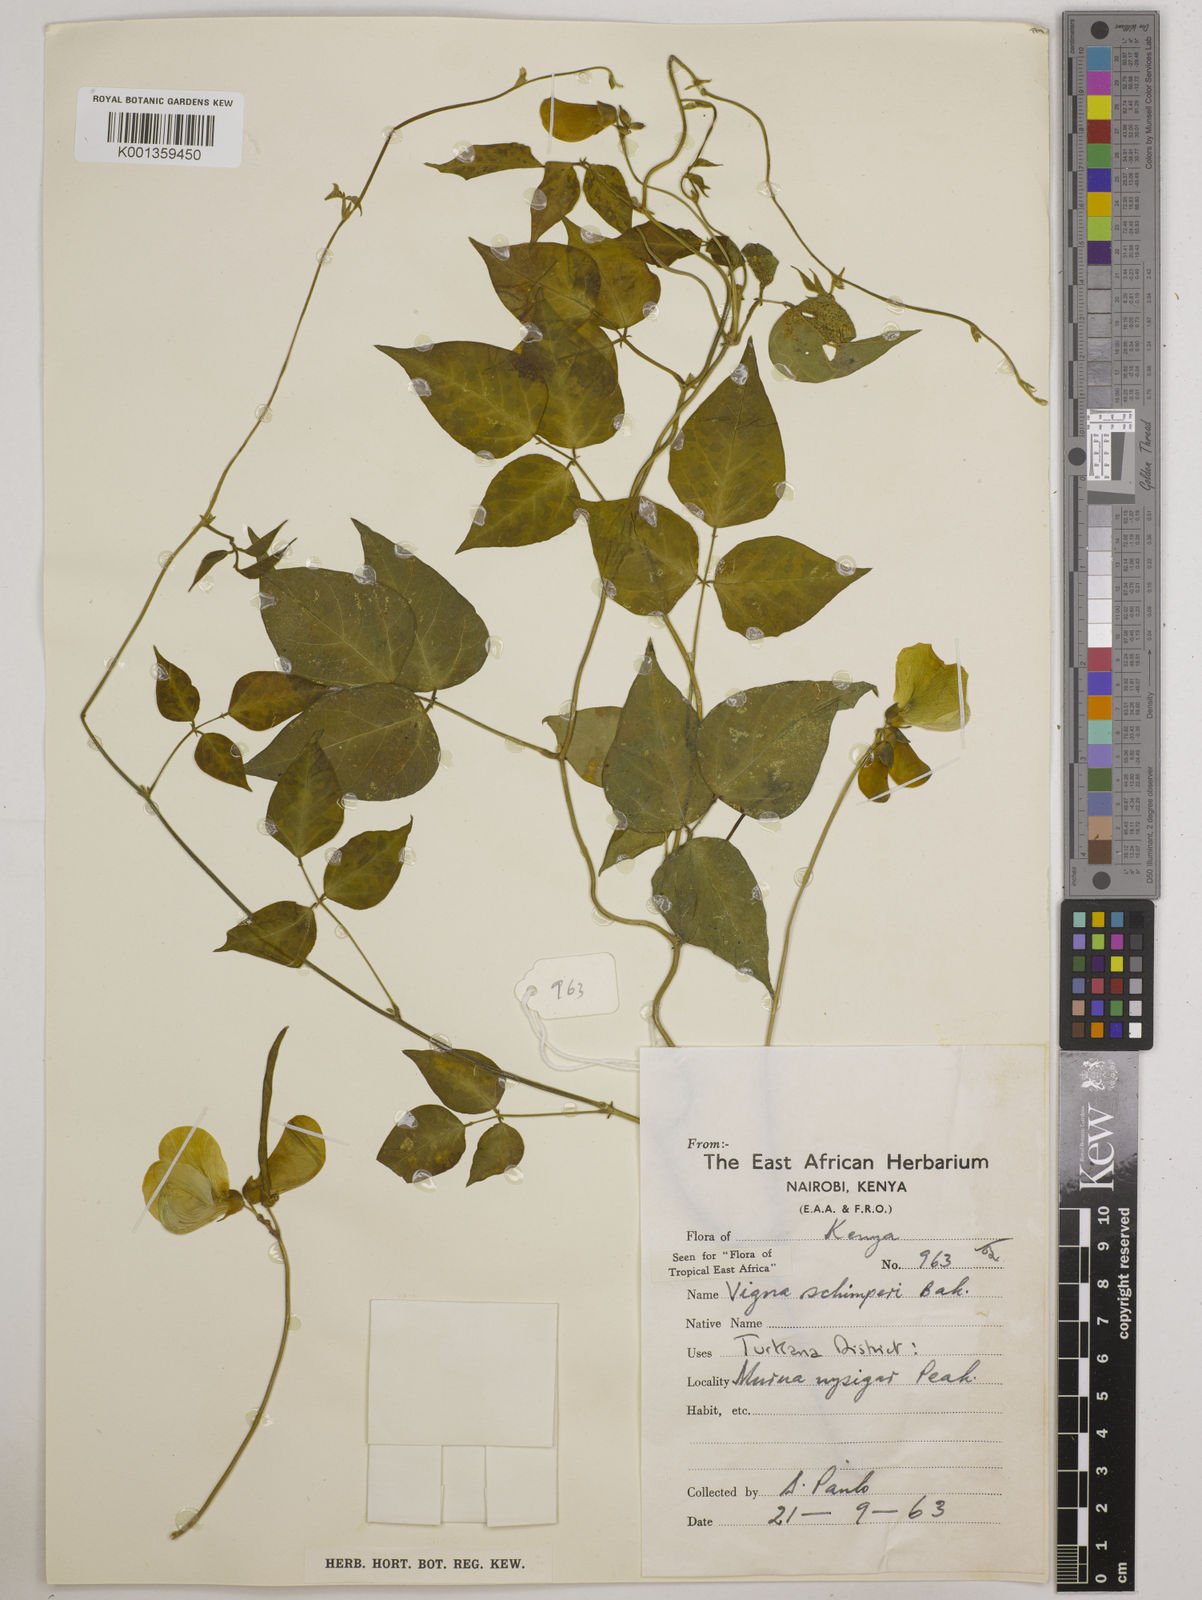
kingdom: Plantae
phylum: Tracheophyta
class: Magnoliopsida
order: Fabales
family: Fabaceae
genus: Vigna
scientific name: Vigna schimperi
